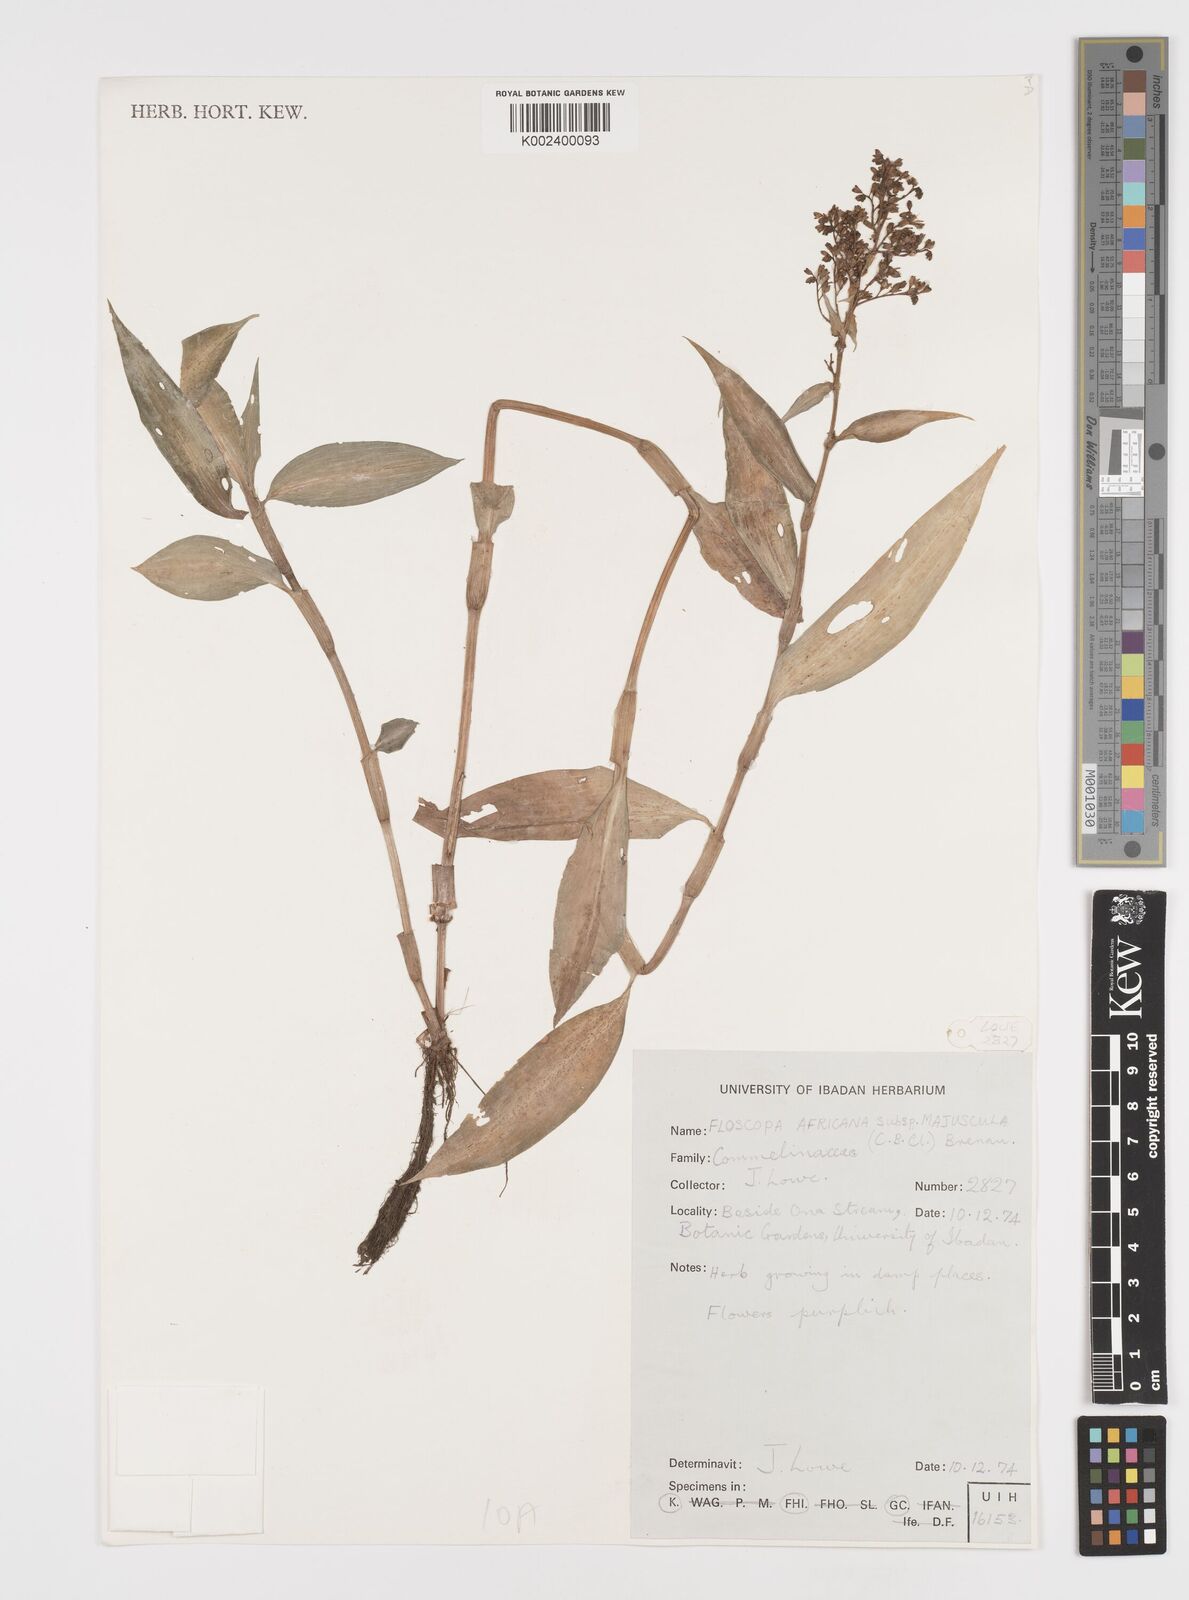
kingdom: Plantae
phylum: Tracheophyta
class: Liliopsida
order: Commelinales
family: Commelinaceae
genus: Floscopa
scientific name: Floscopa africana
